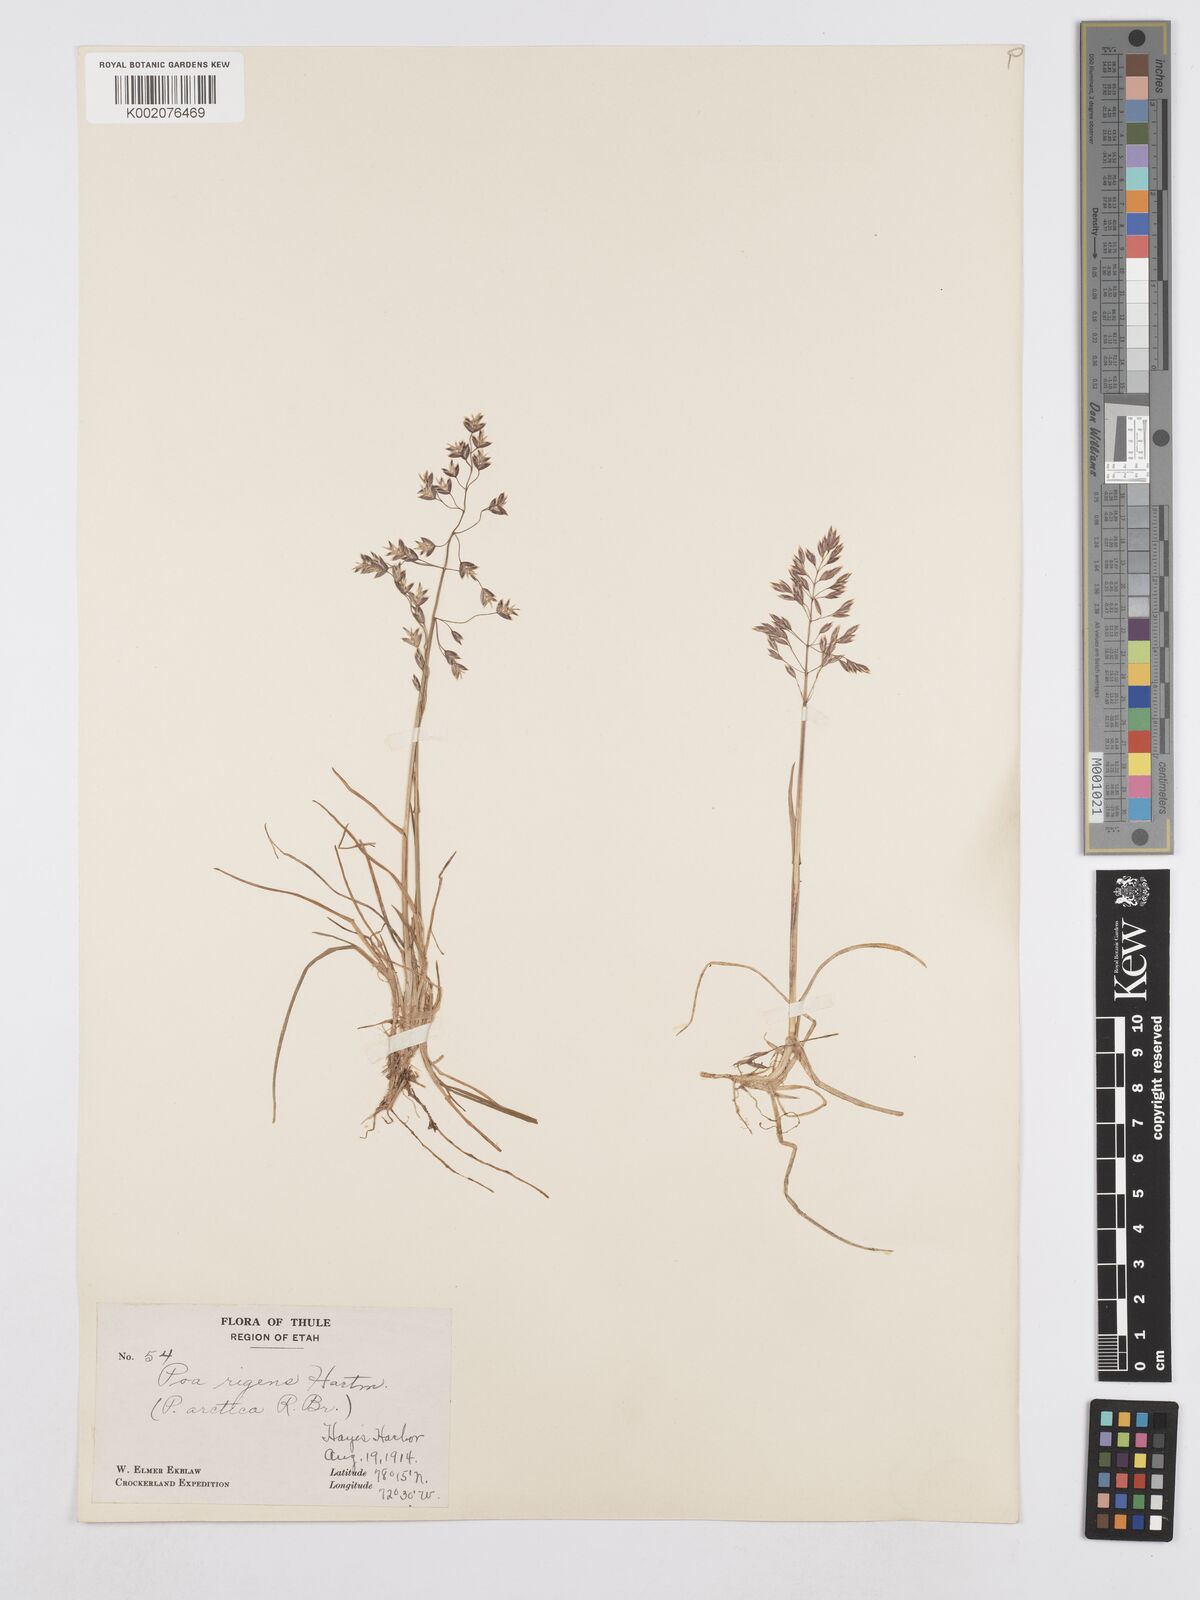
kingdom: Plantae
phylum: Tracheophyta
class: Liliopsida
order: Poales
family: Poaceae
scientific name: Poaceae
